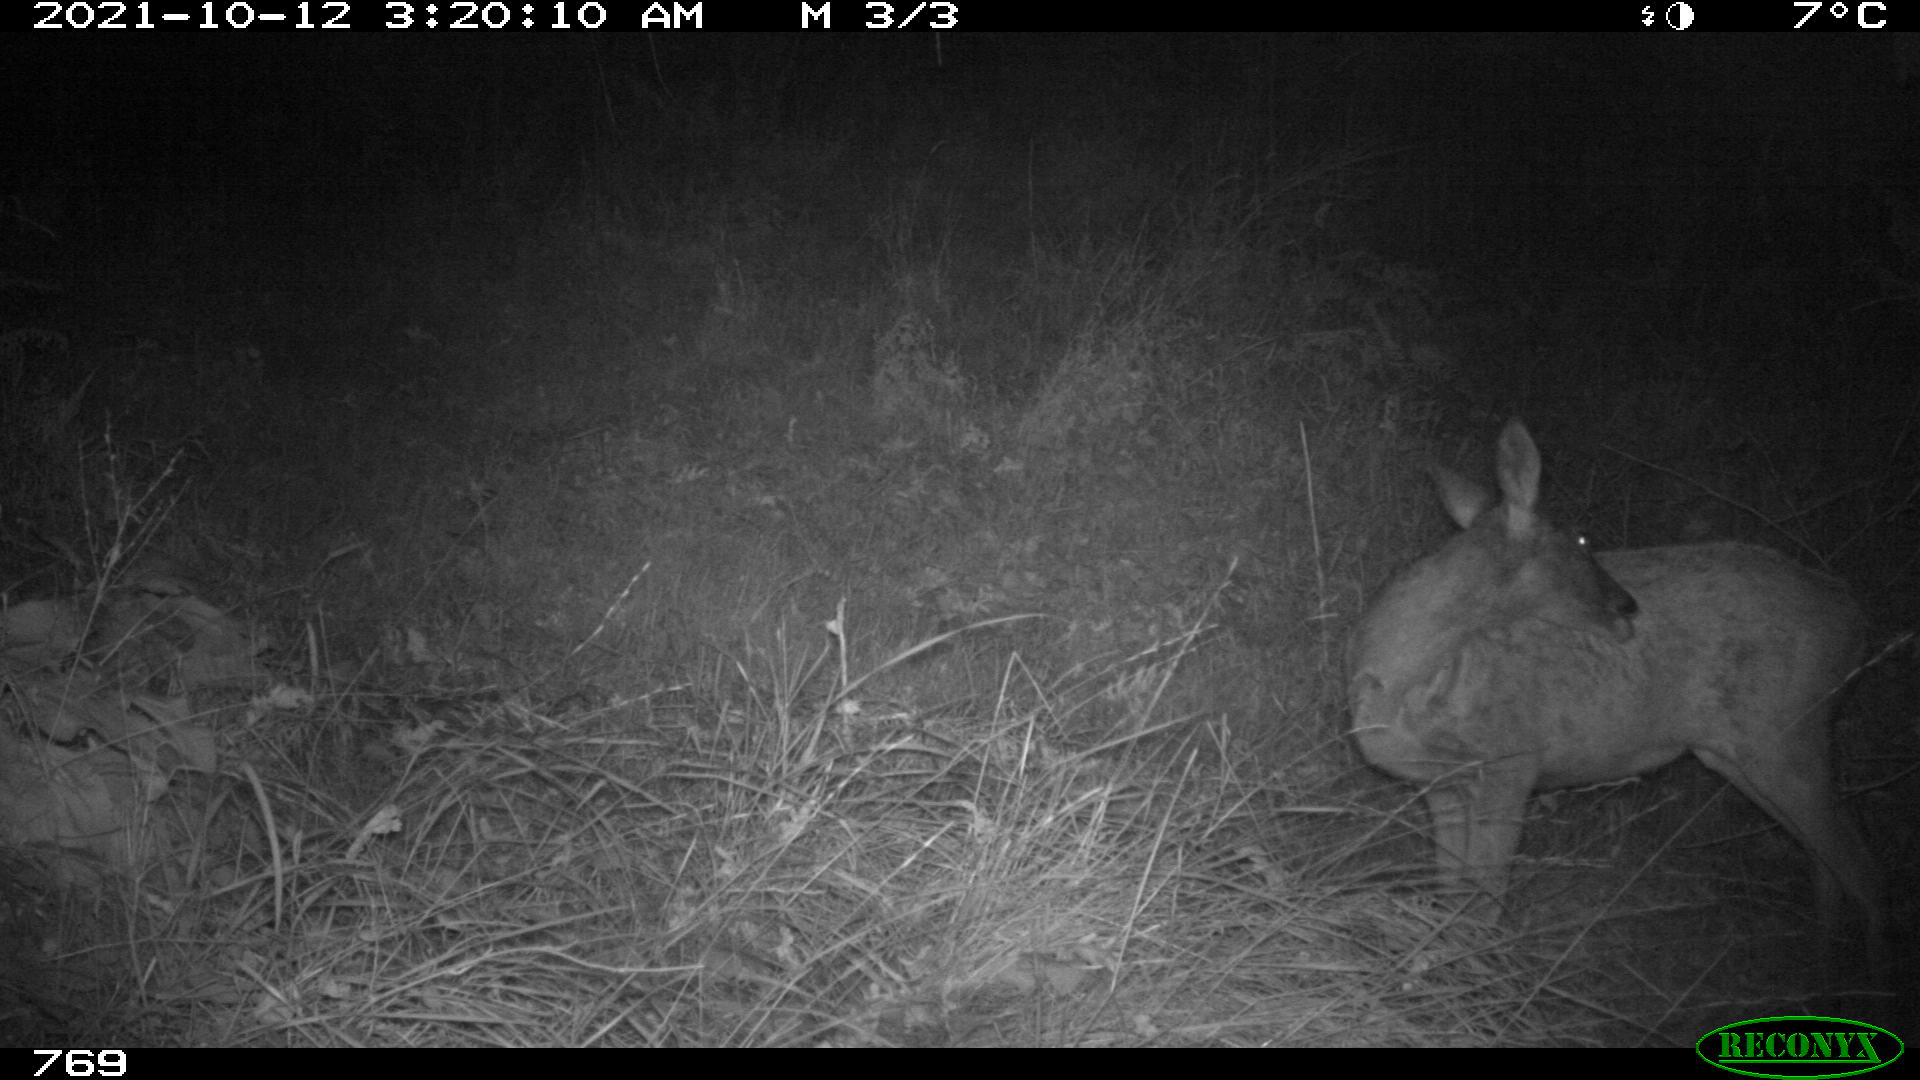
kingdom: Animalia
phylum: Chordata
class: Mammalia
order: Artiodactyla
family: Cervidae
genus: Capreolus
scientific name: Capreolus capreolus
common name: Western roe deer
